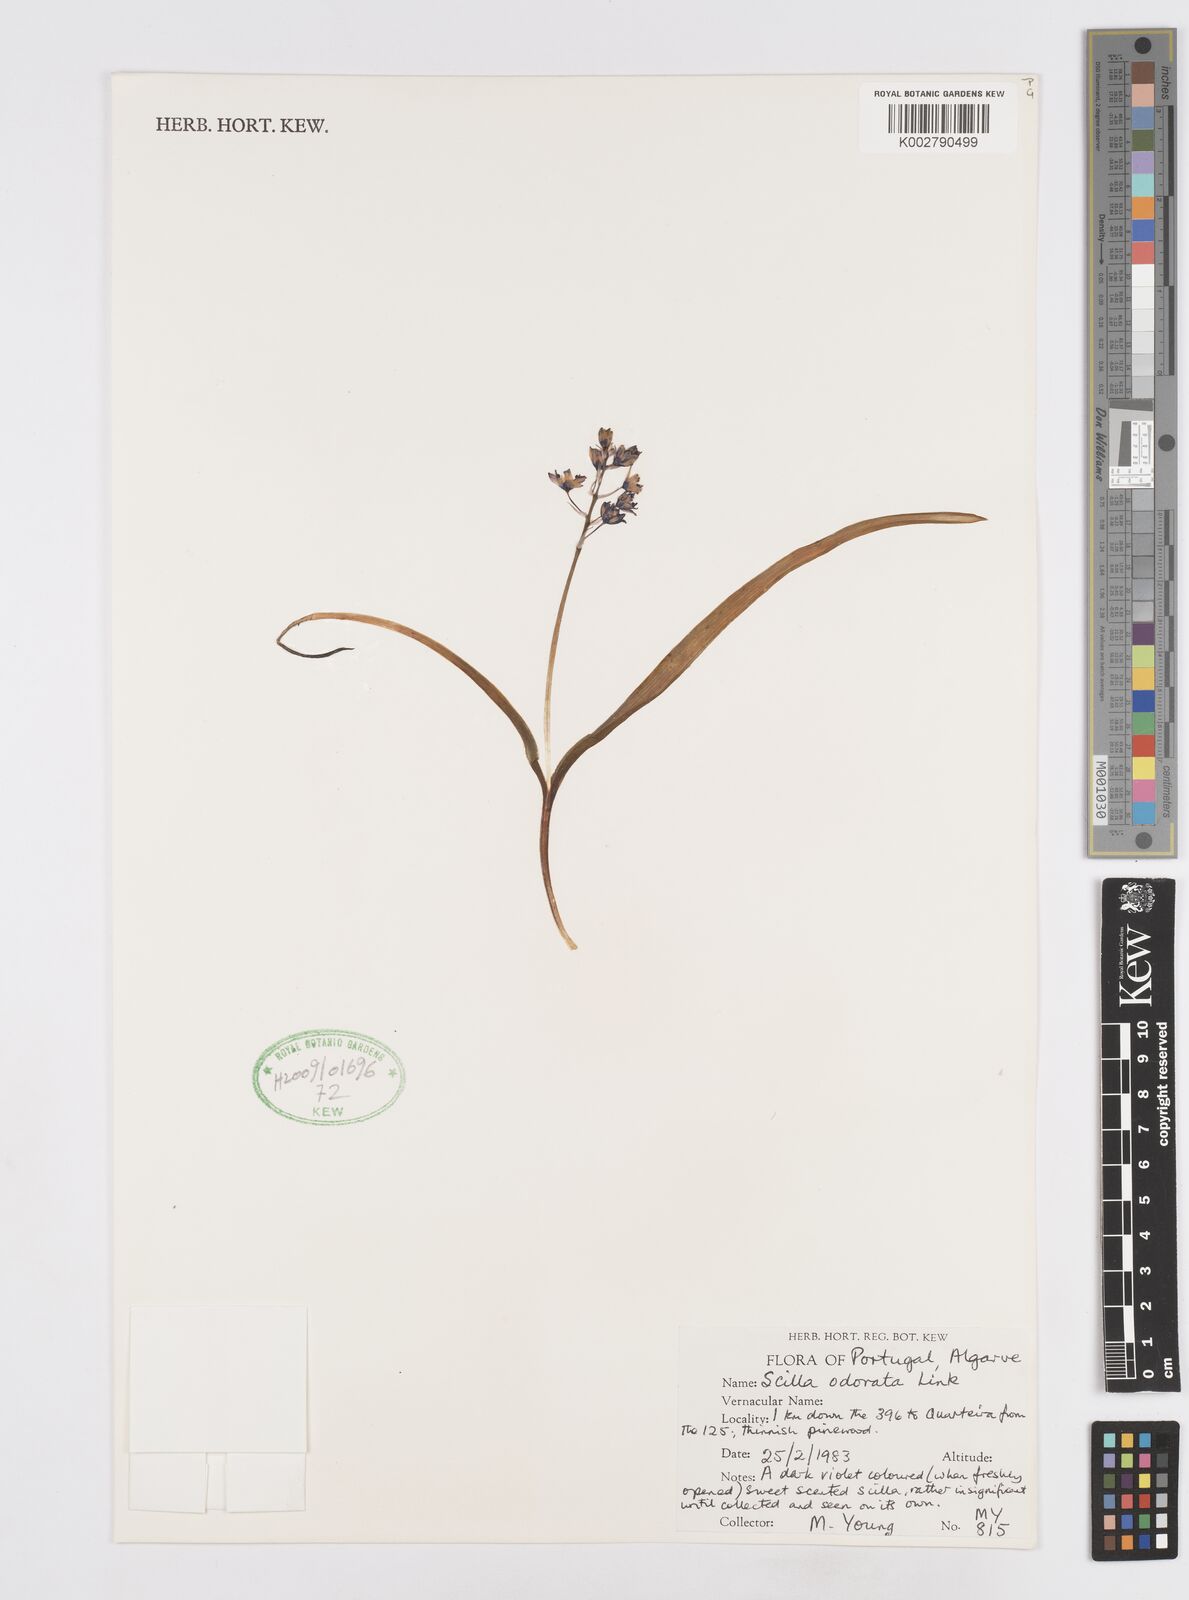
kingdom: Plantae
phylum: Tracheophyta
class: Liliopsida
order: Asparagales
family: Asparagaceae
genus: Scilla
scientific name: Scilla verna
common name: Spring squill
